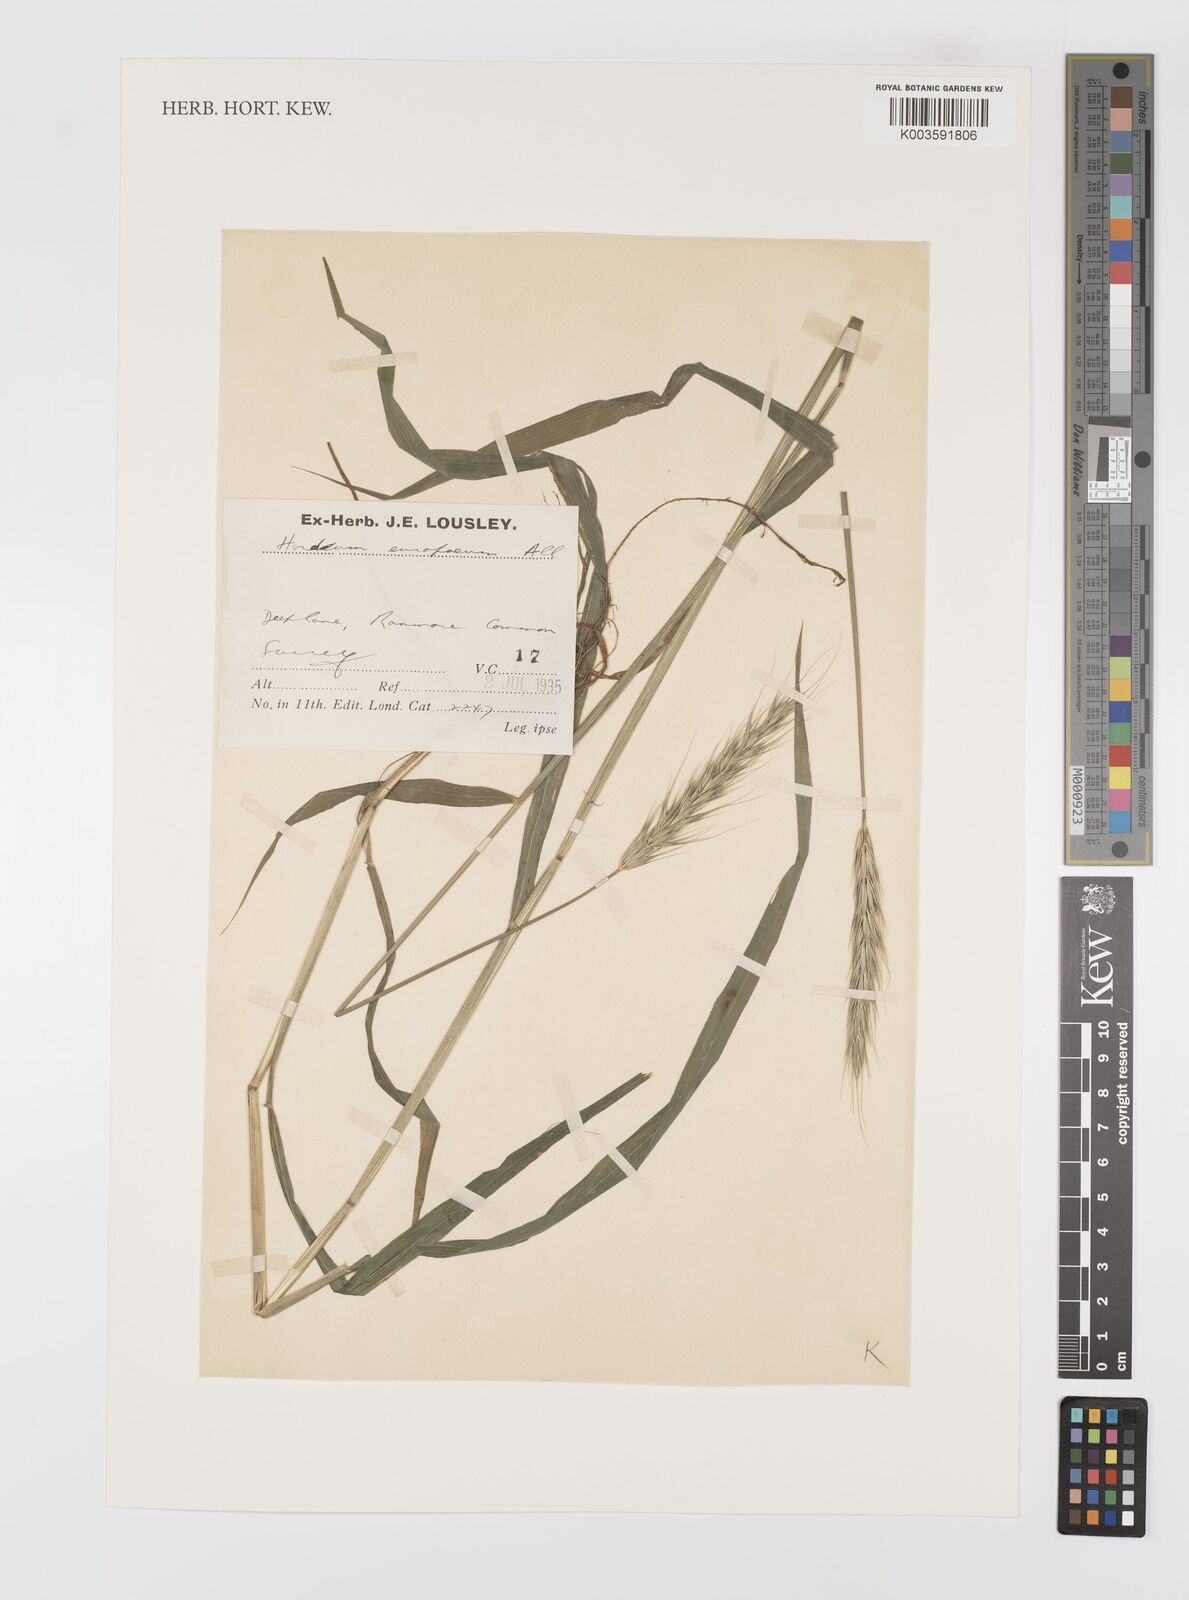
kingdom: Plantae
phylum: Tracheophyta
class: Liliopsida
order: Poales
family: Poaceae
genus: Hordelymus
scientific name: Hordelymus europaeus
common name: Wood-barley
